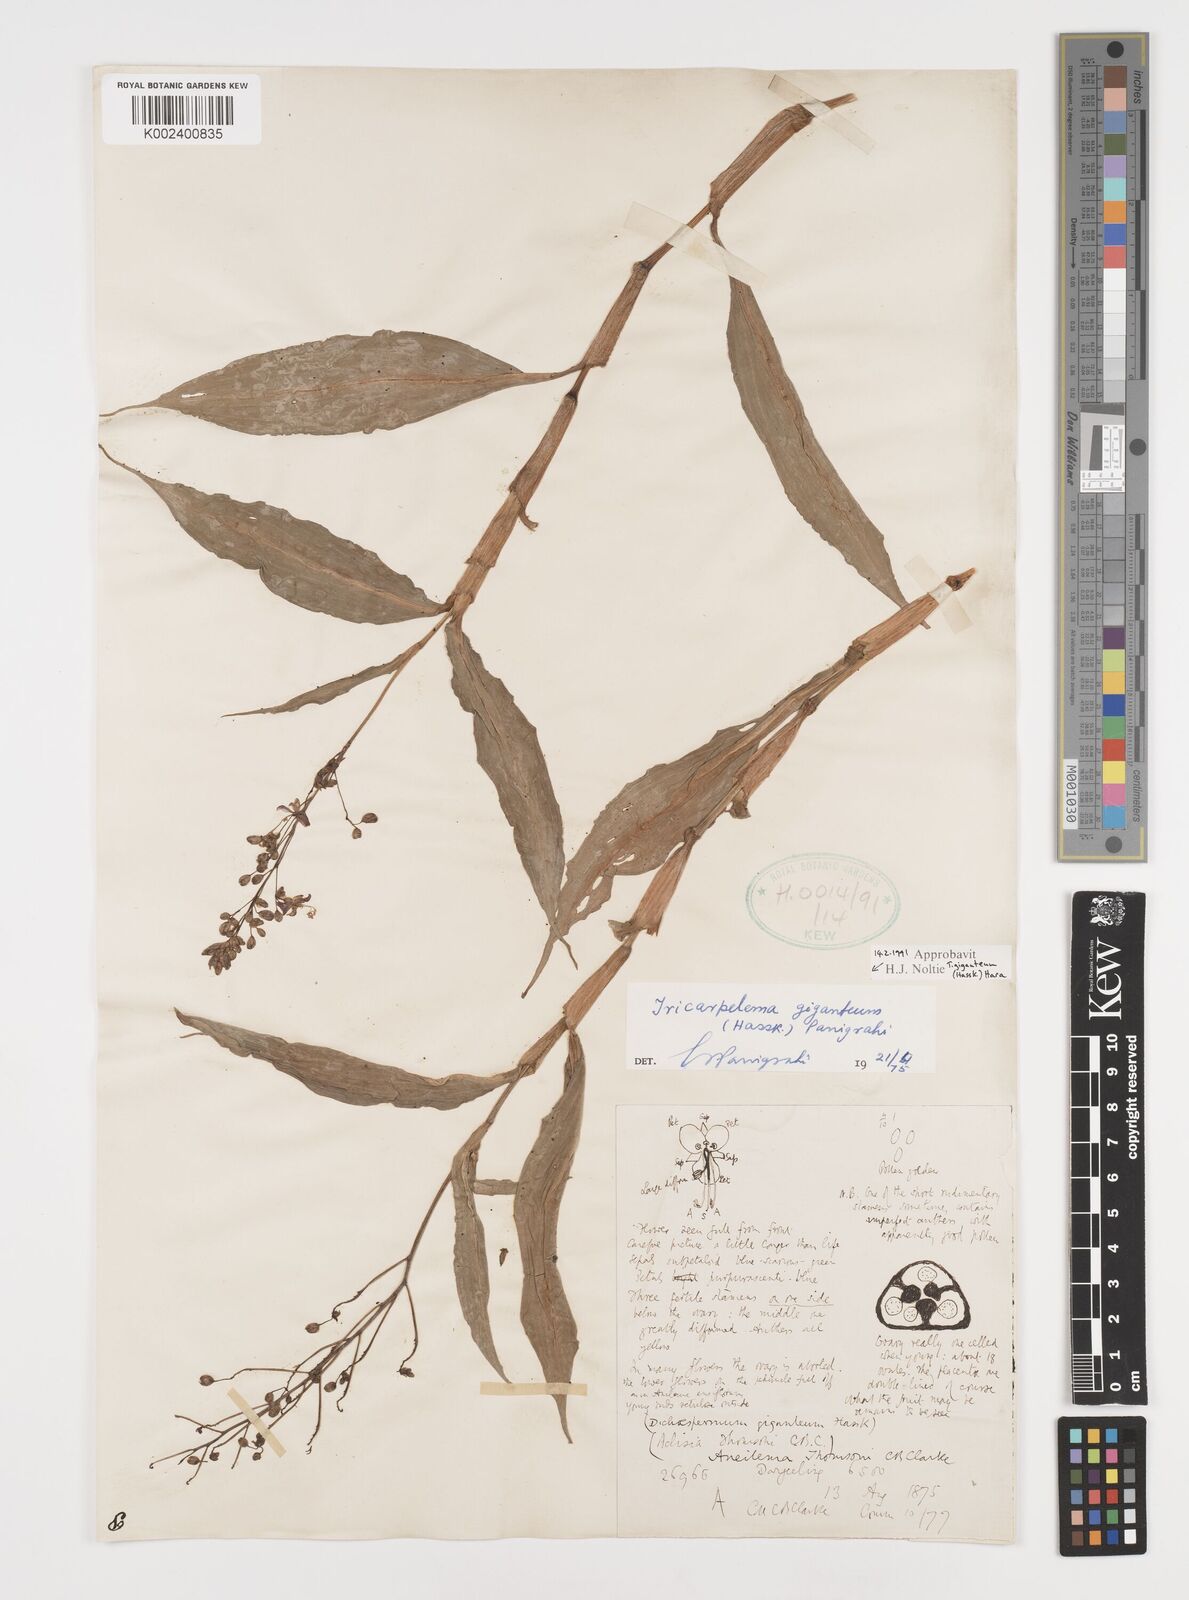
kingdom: Plantae
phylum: Tracheophyta
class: Liliopsida
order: Commelinales
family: Commelinaceae
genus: Tricarpelema
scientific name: Tricarpelema giganteum
